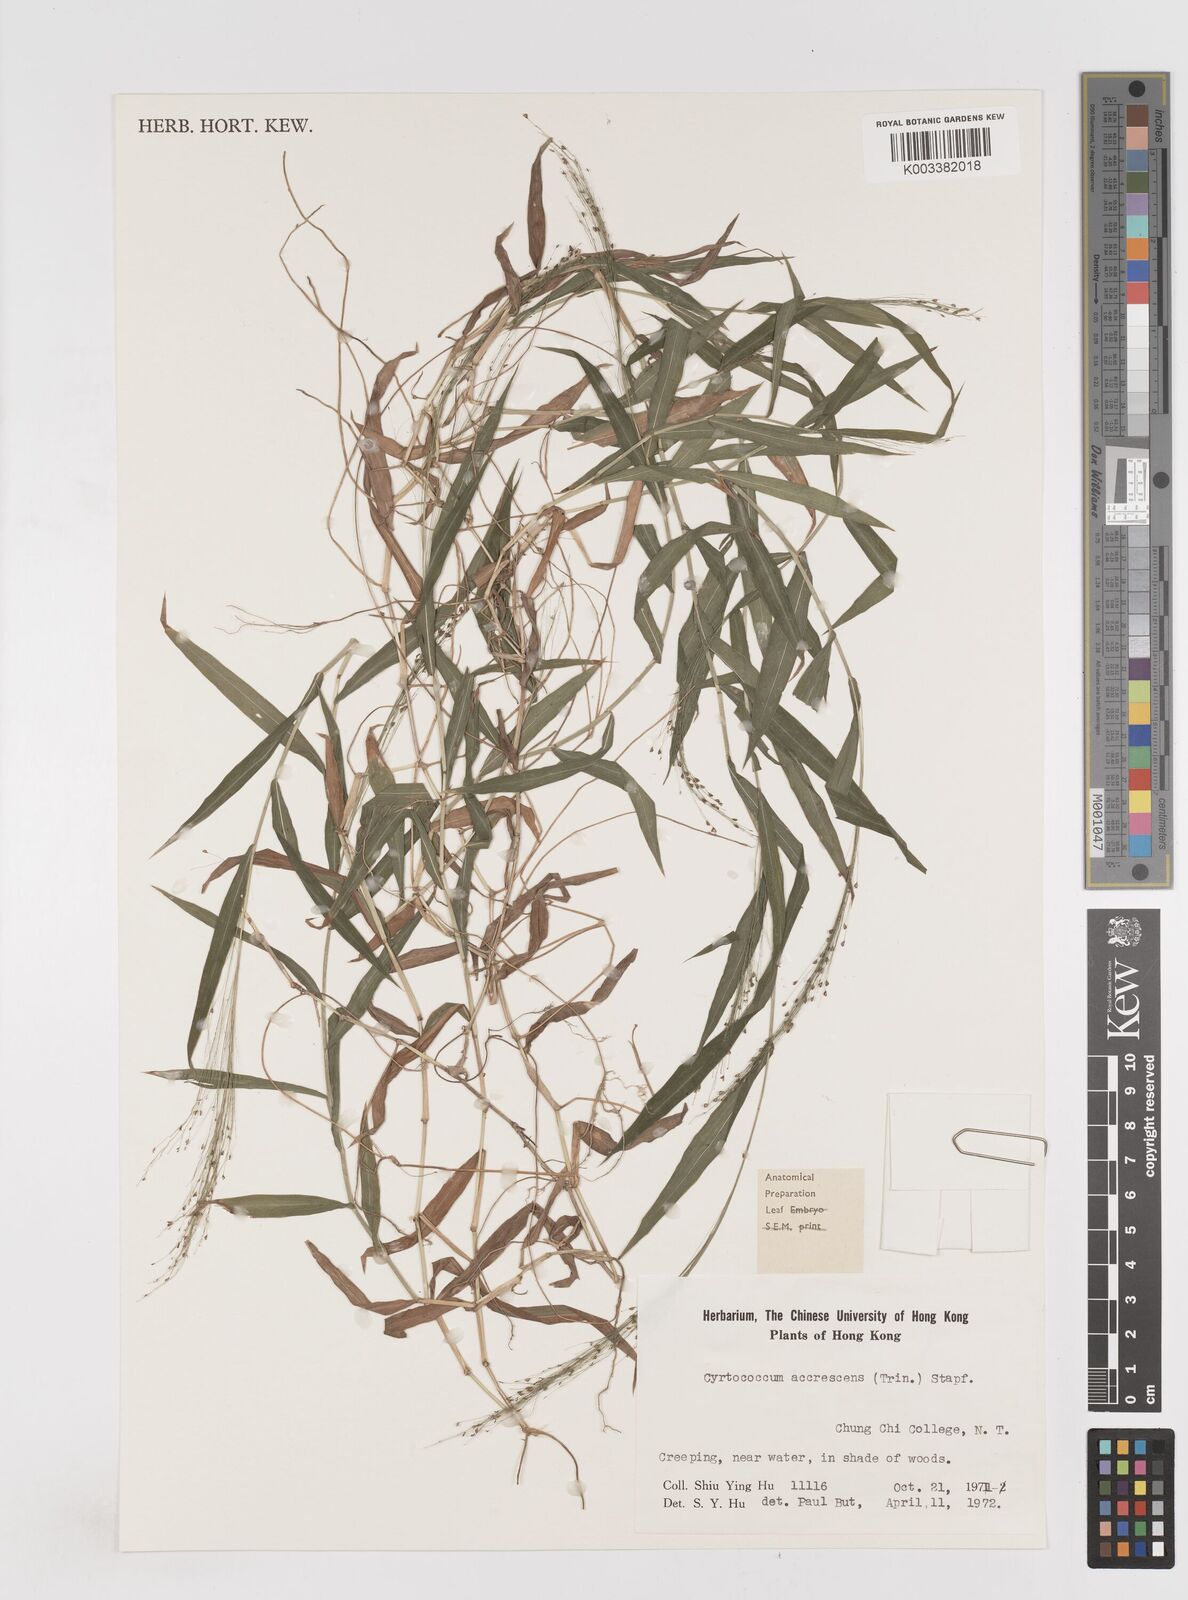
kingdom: Plantae
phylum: Tracheophyta
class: Liliopsida
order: Poales
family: Poaceae
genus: Cyrtococcum
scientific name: Cyrtococcum patens
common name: Broad-leaved bowgrass
